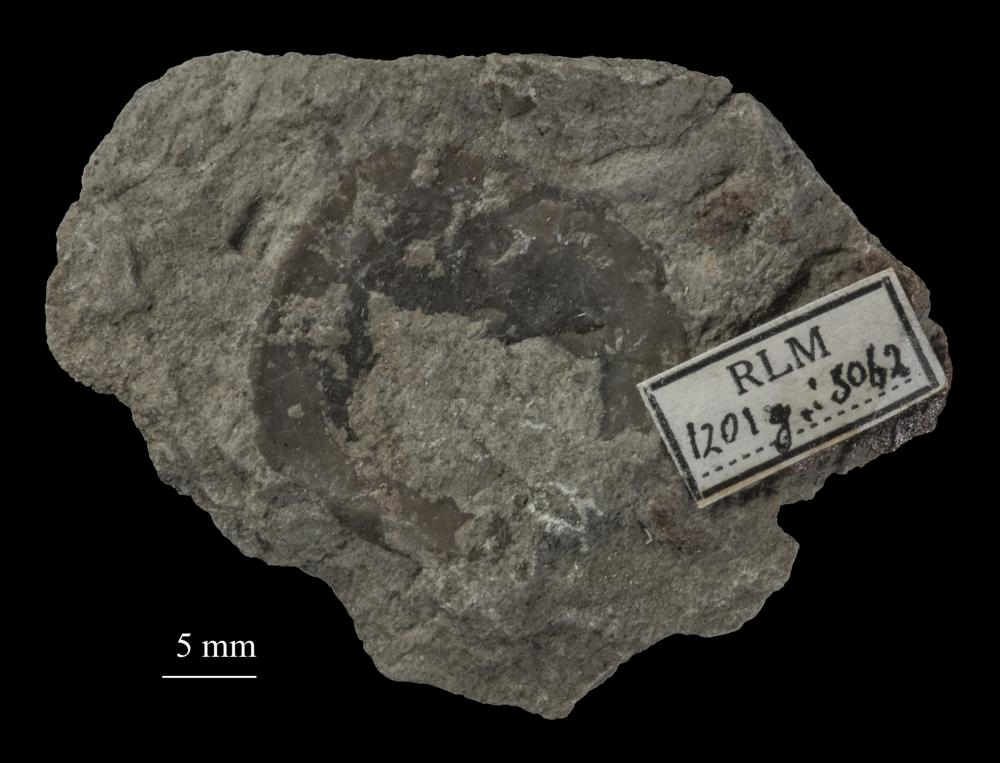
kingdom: Animalia
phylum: Brachiopoda
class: Craniata
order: Craniida
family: Craniidae
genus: Pseudocrania
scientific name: Pseudocrania
